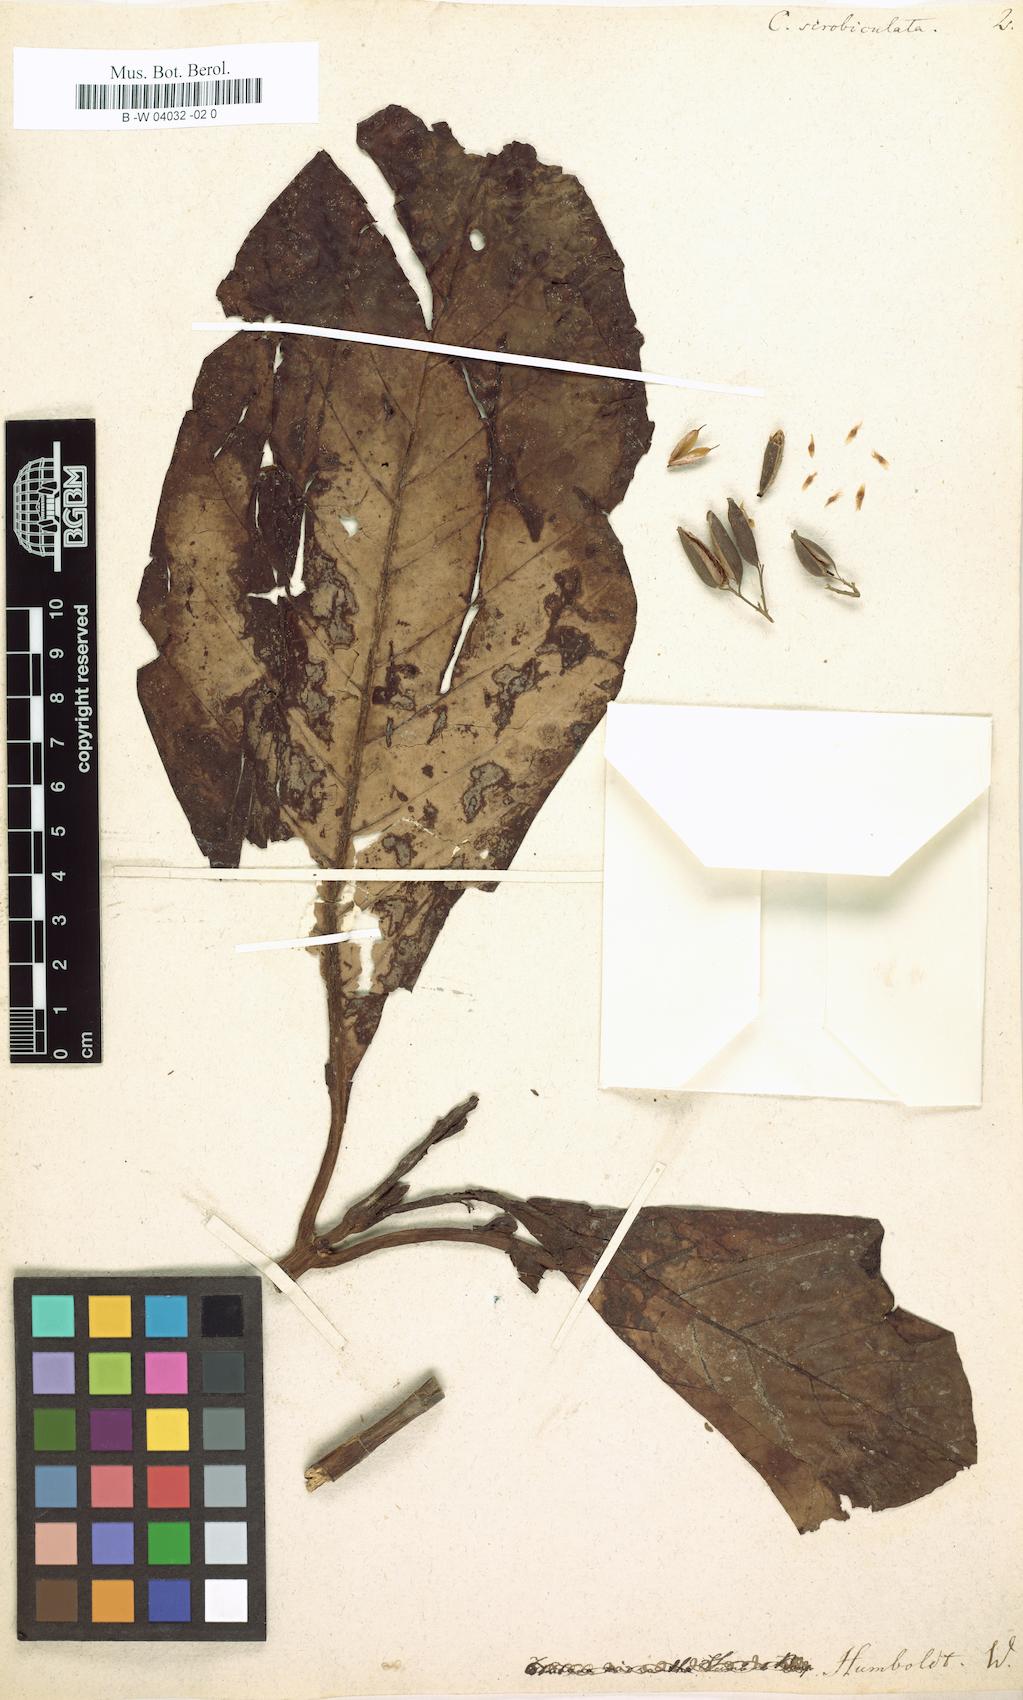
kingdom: Plantae
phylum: Tracheophyta
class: Magnoliopsida
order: Gentianales
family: Rubiaceae
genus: Cinchona
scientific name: Cinchona scrobiculata
